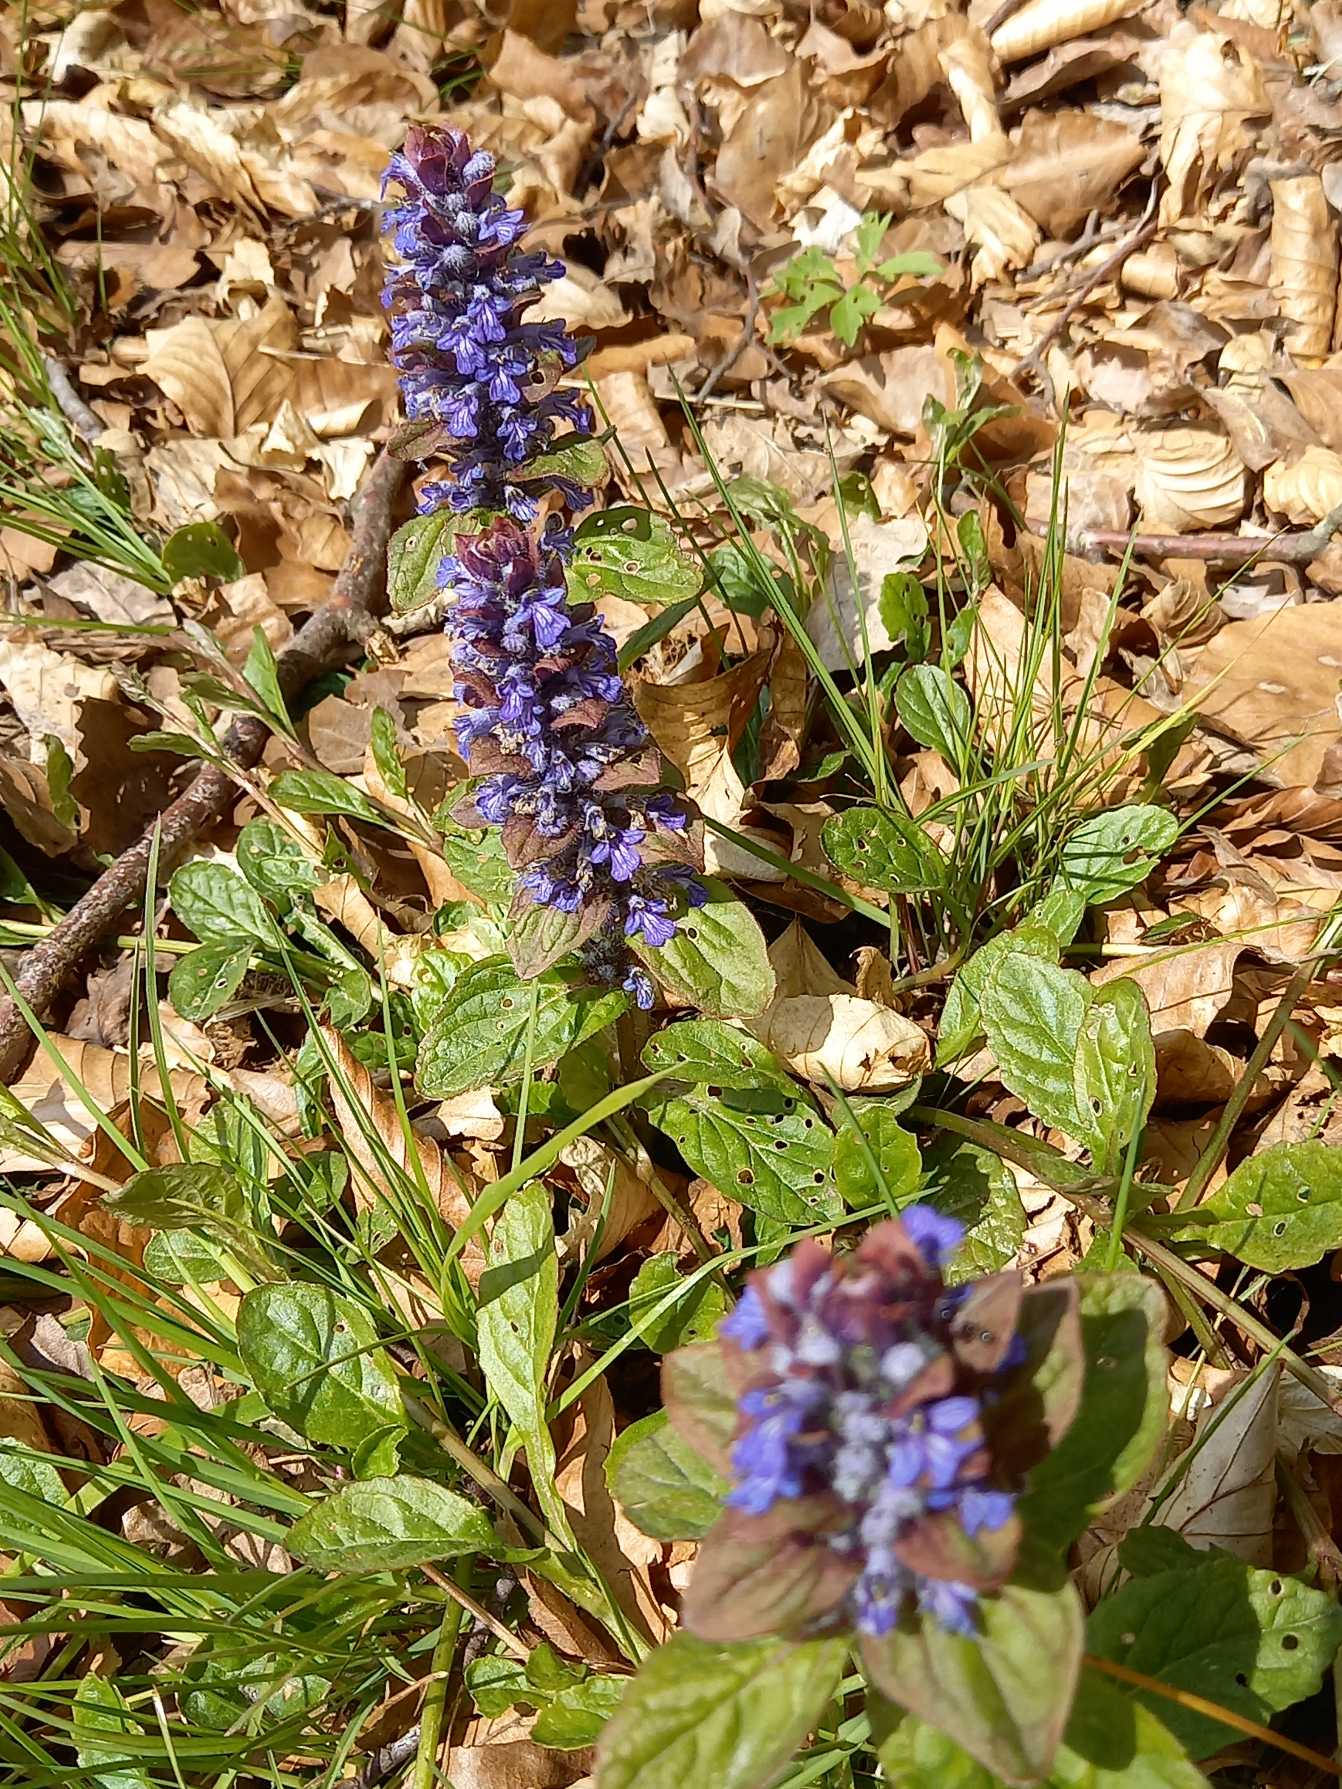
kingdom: Plantae
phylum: Tracheophyta
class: Magnoliopsida
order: Lamiales
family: Lamiaceae
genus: Ajuga
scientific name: Ajuga reptans
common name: Krybende læbeløs
